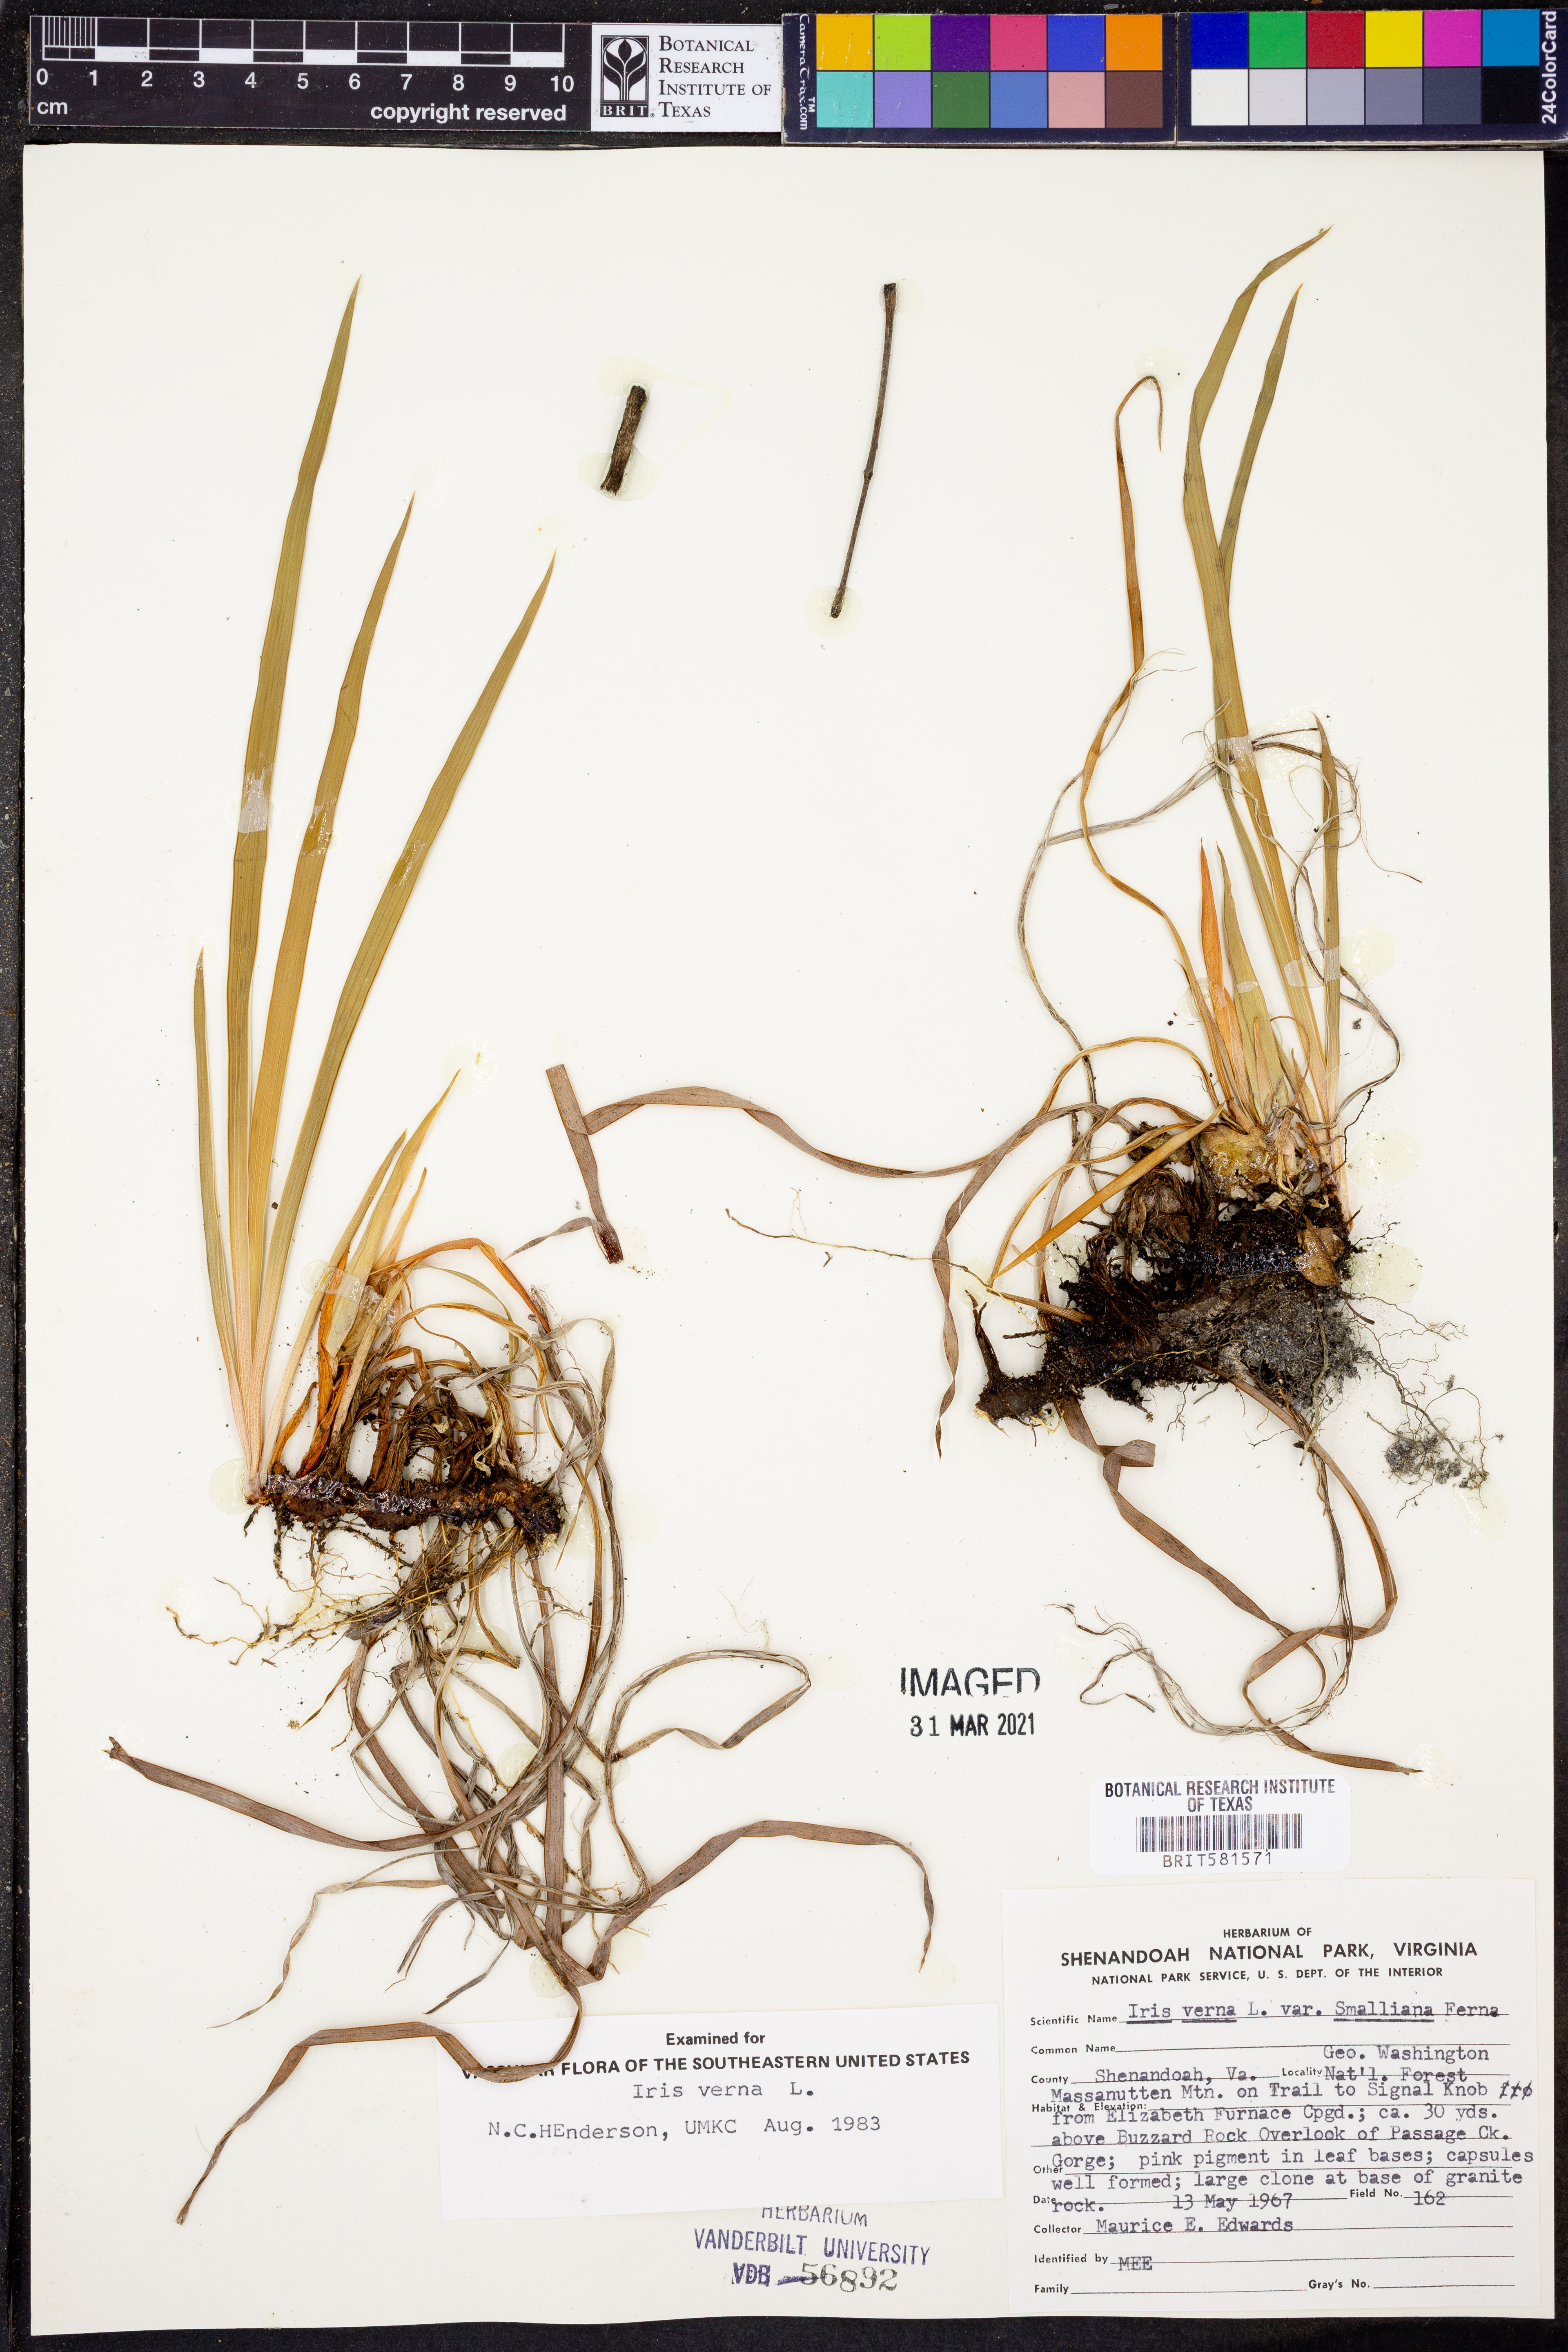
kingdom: Plantae
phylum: Tracheophyta
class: Liliopsida
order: Asparagales
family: Iridaceae
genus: Iris
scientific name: Iris verna
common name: Dwarf iris
